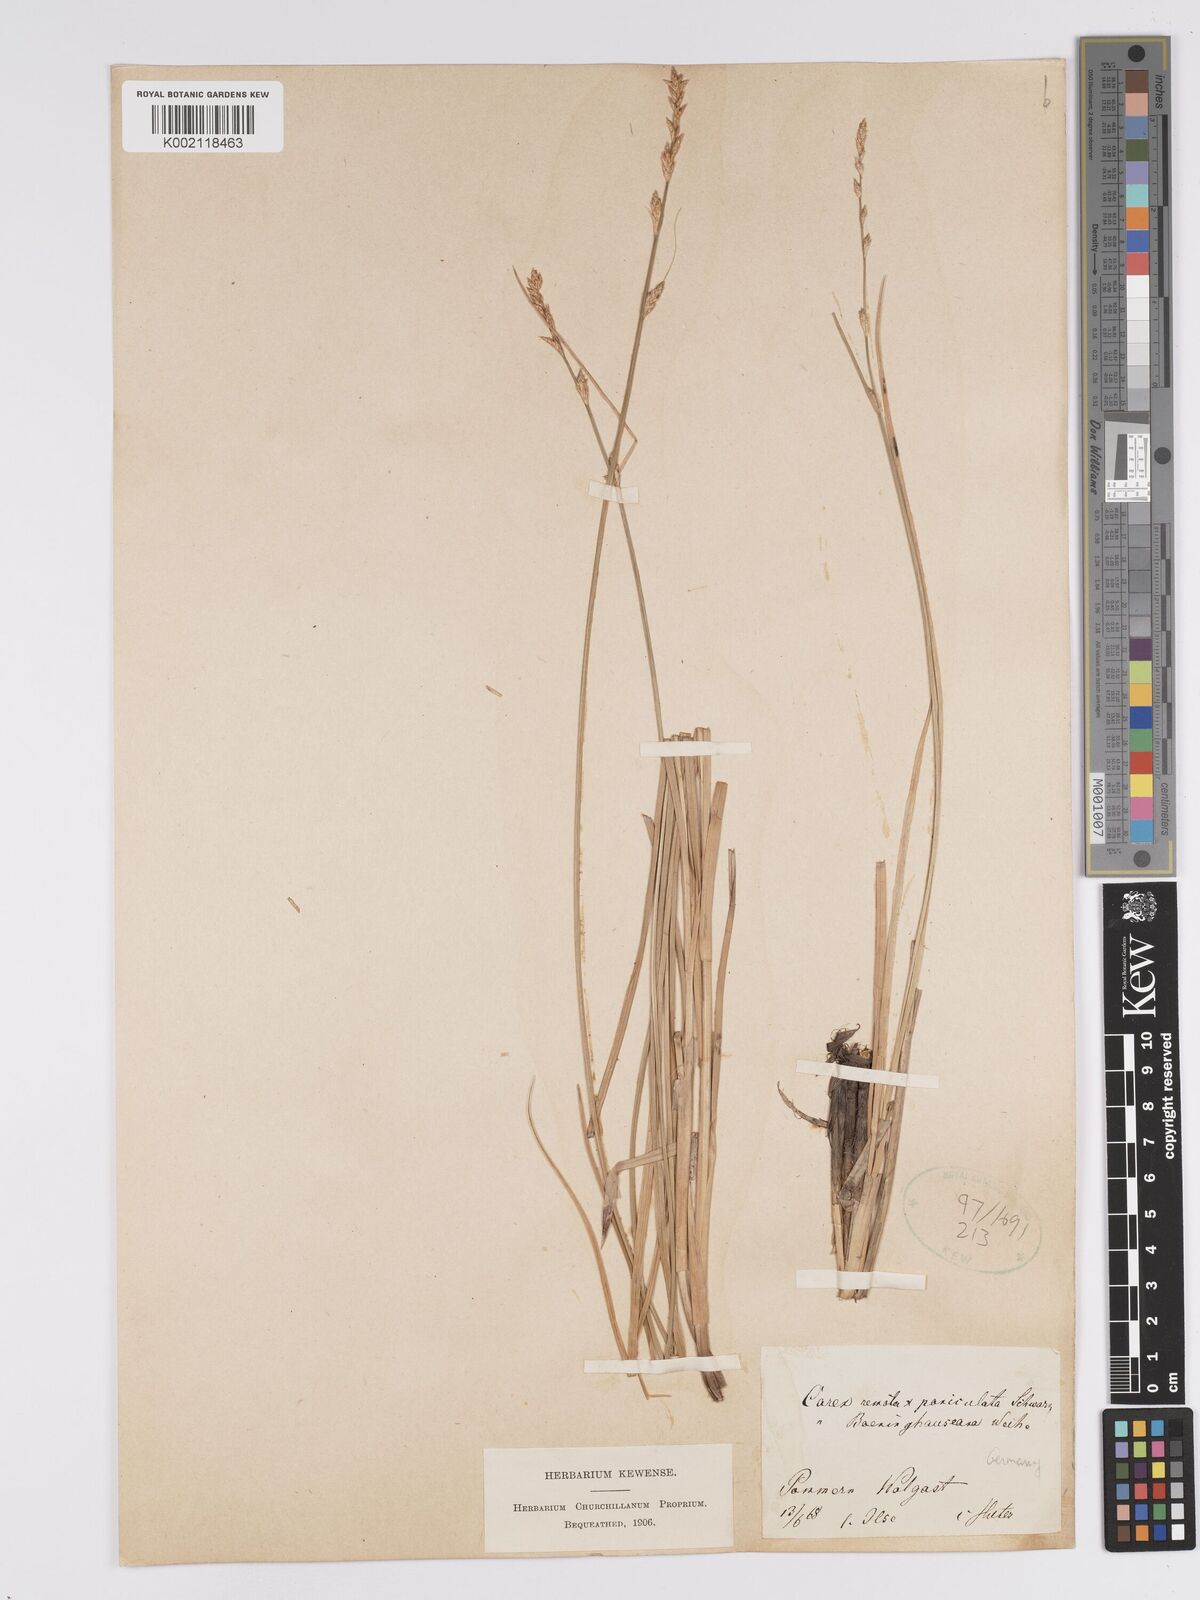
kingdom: Plantae
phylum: Tracheophyta
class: Liliopsida
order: Poales
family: Cyperaceae
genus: Carex
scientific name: Carex boenninghausiana
